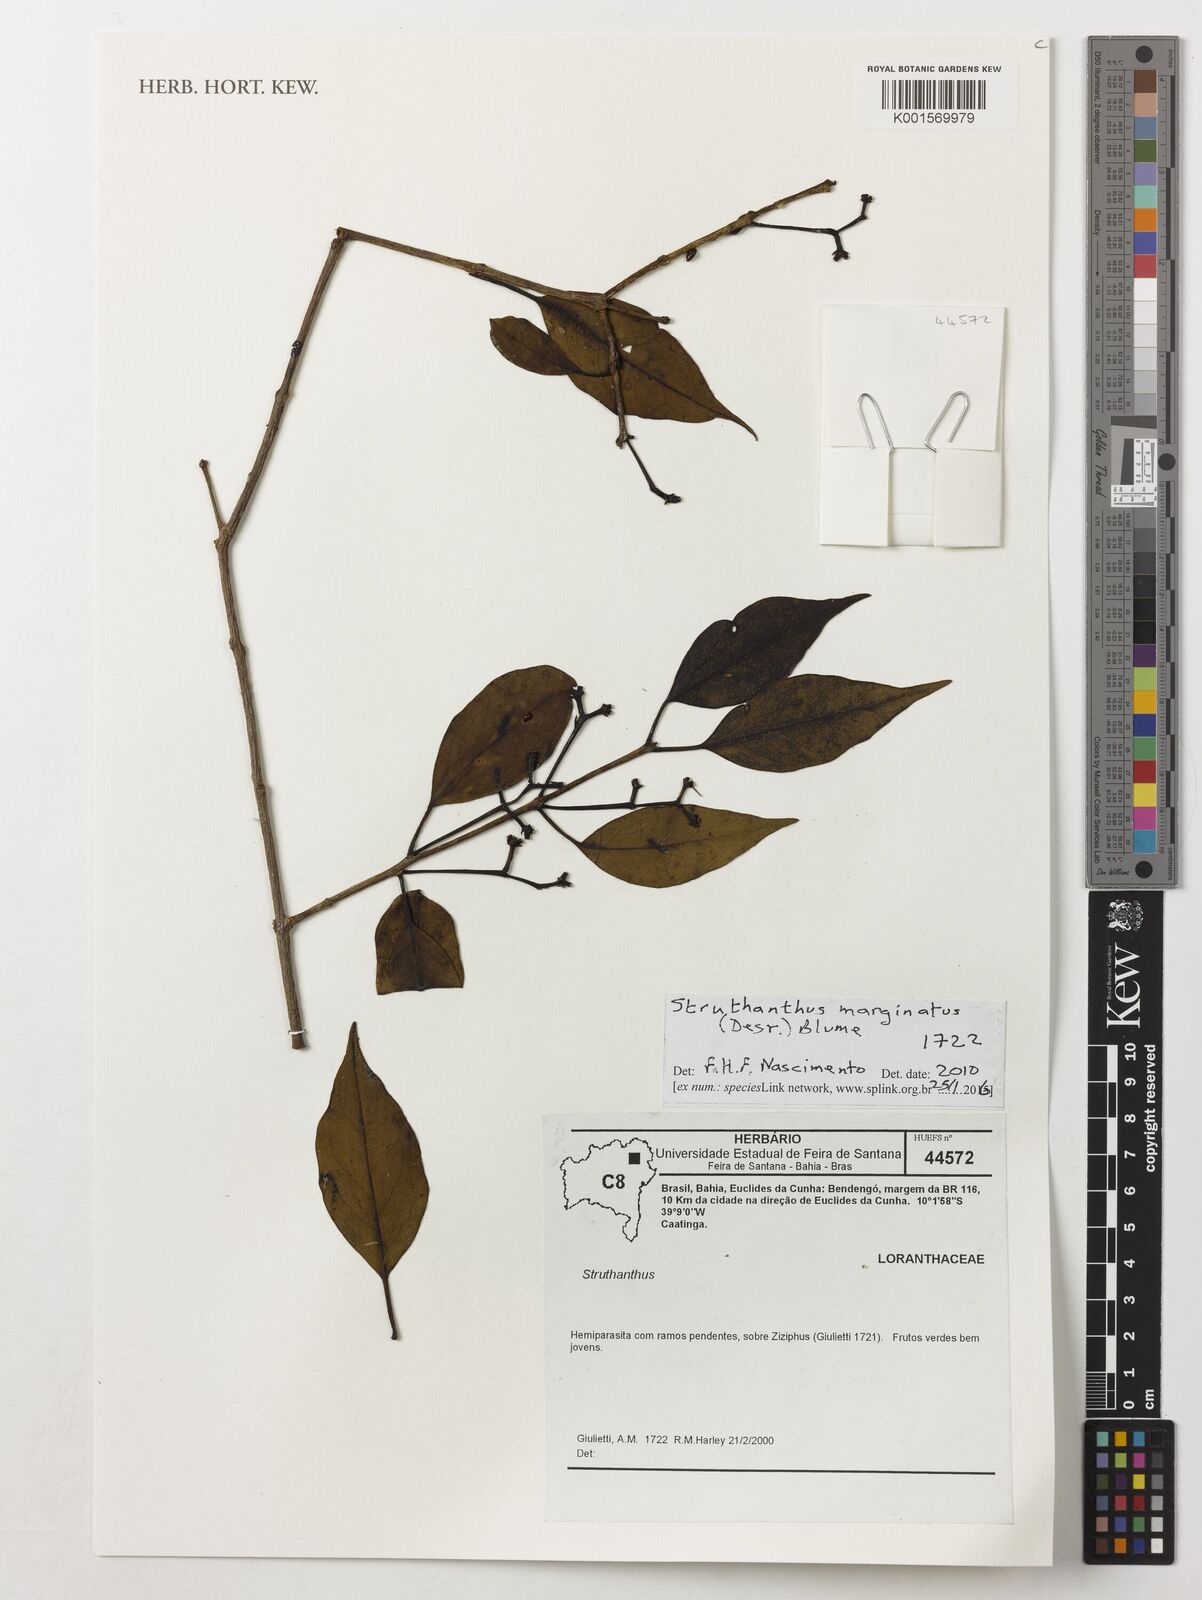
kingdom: Plantae
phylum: Tracheophyta
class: Magnoliopsida
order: Santalales
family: Loranthaceae
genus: Struthanthus
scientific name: Struthanthus marginatus
